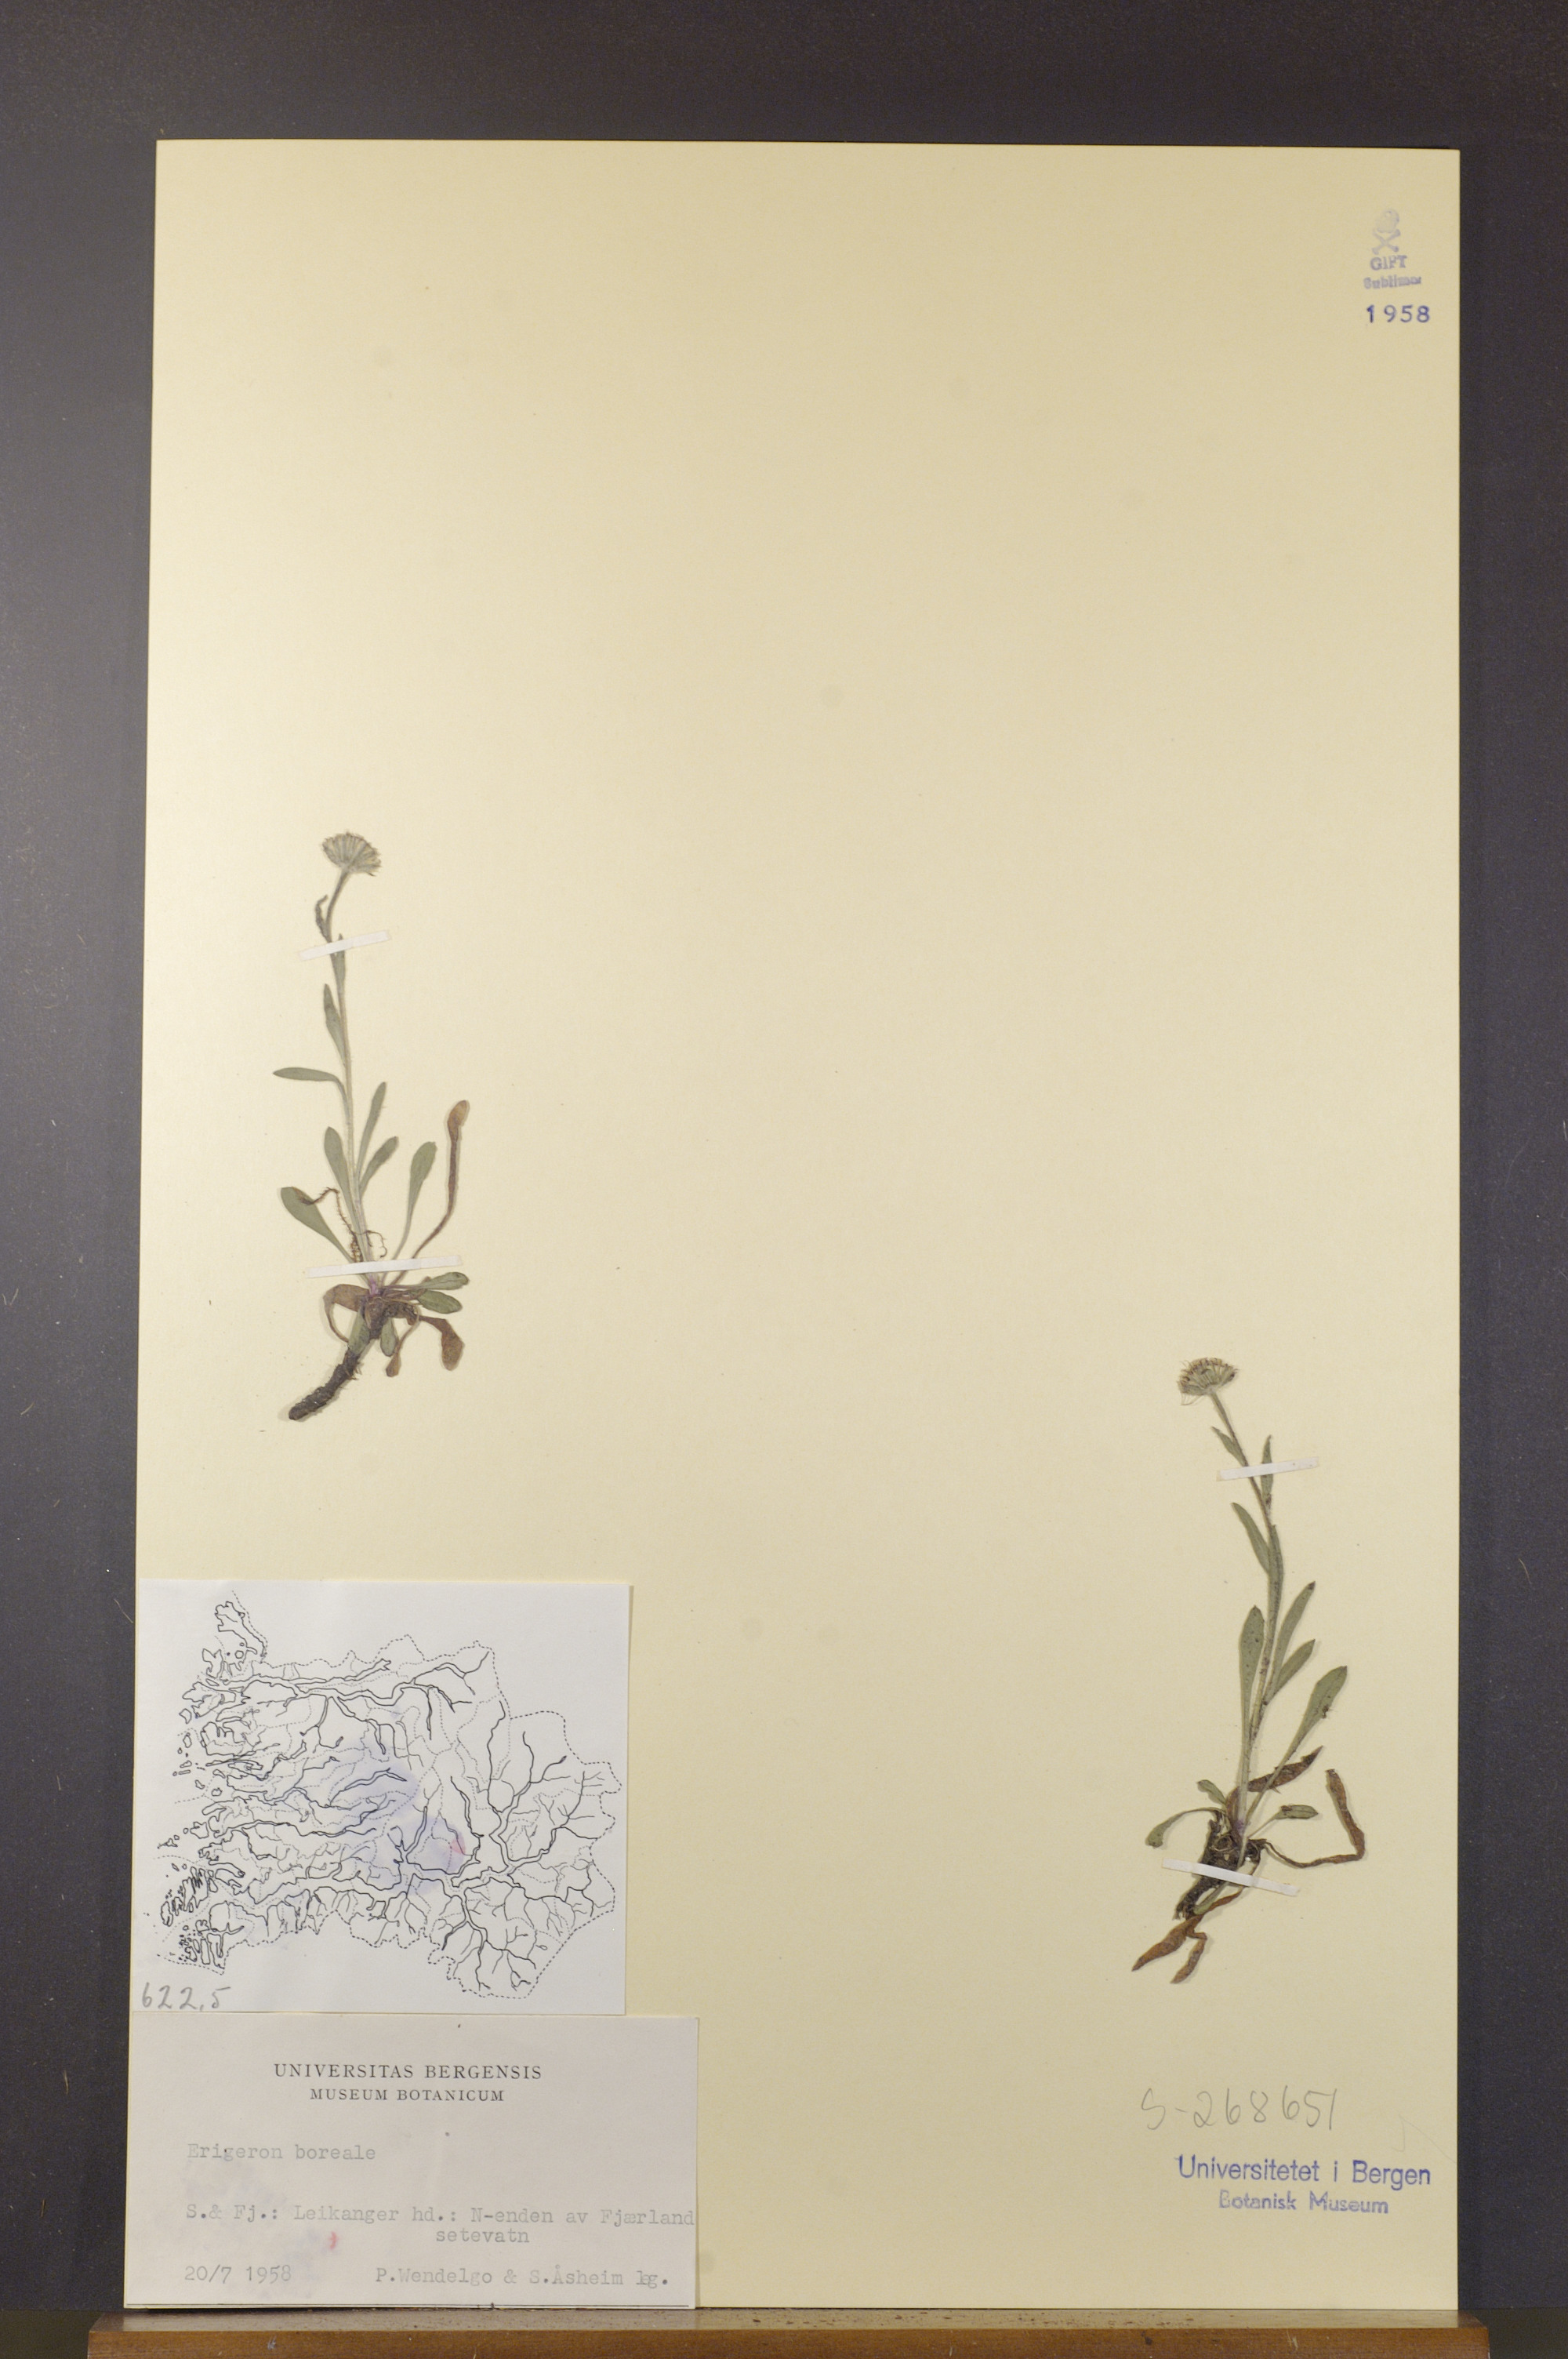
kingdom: Plantae
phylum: Tracheophyta
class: Magnoliopsida
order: Asterales
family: Asteraceae
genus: Erigeron
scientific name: Erigeron borealis
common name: Alpine fleabane
